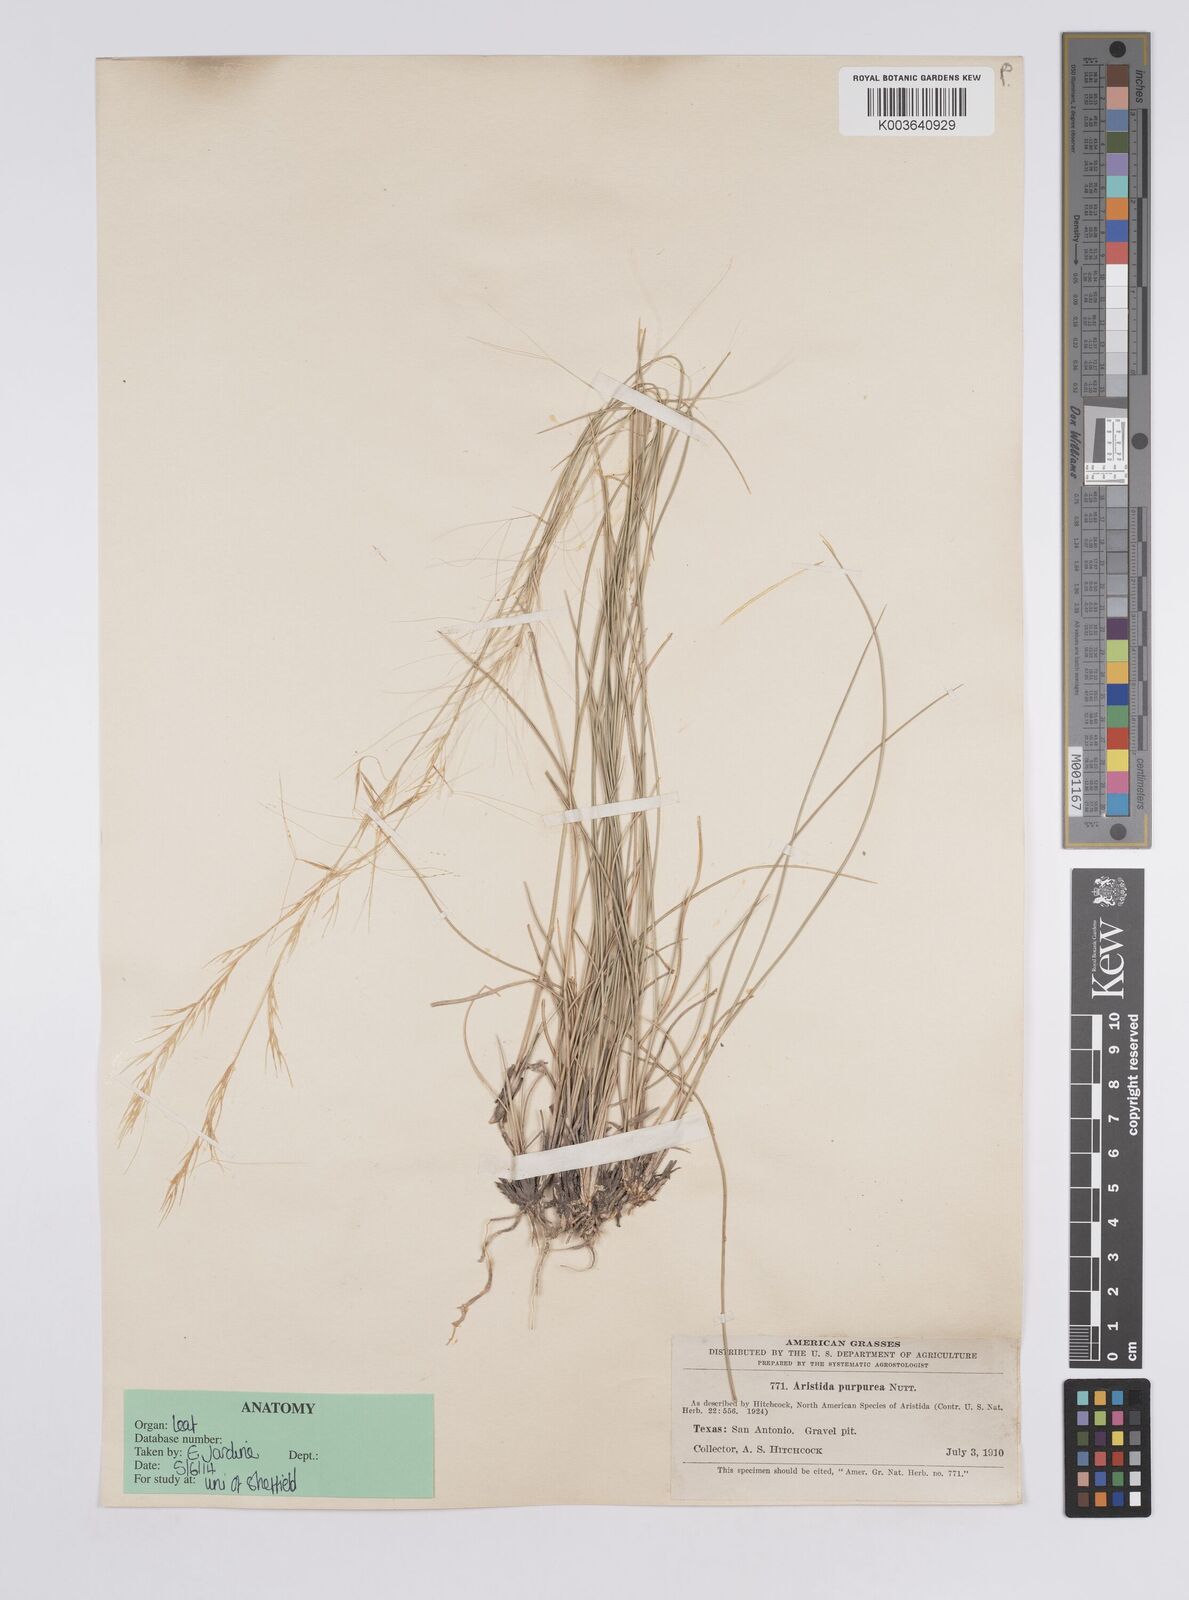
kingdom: Plantae
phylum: Tracheophyta
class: Liliopsida
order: Poales
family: Poaceae
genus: Aristida
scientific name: Aristida purpurea
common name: Purple threeawn
